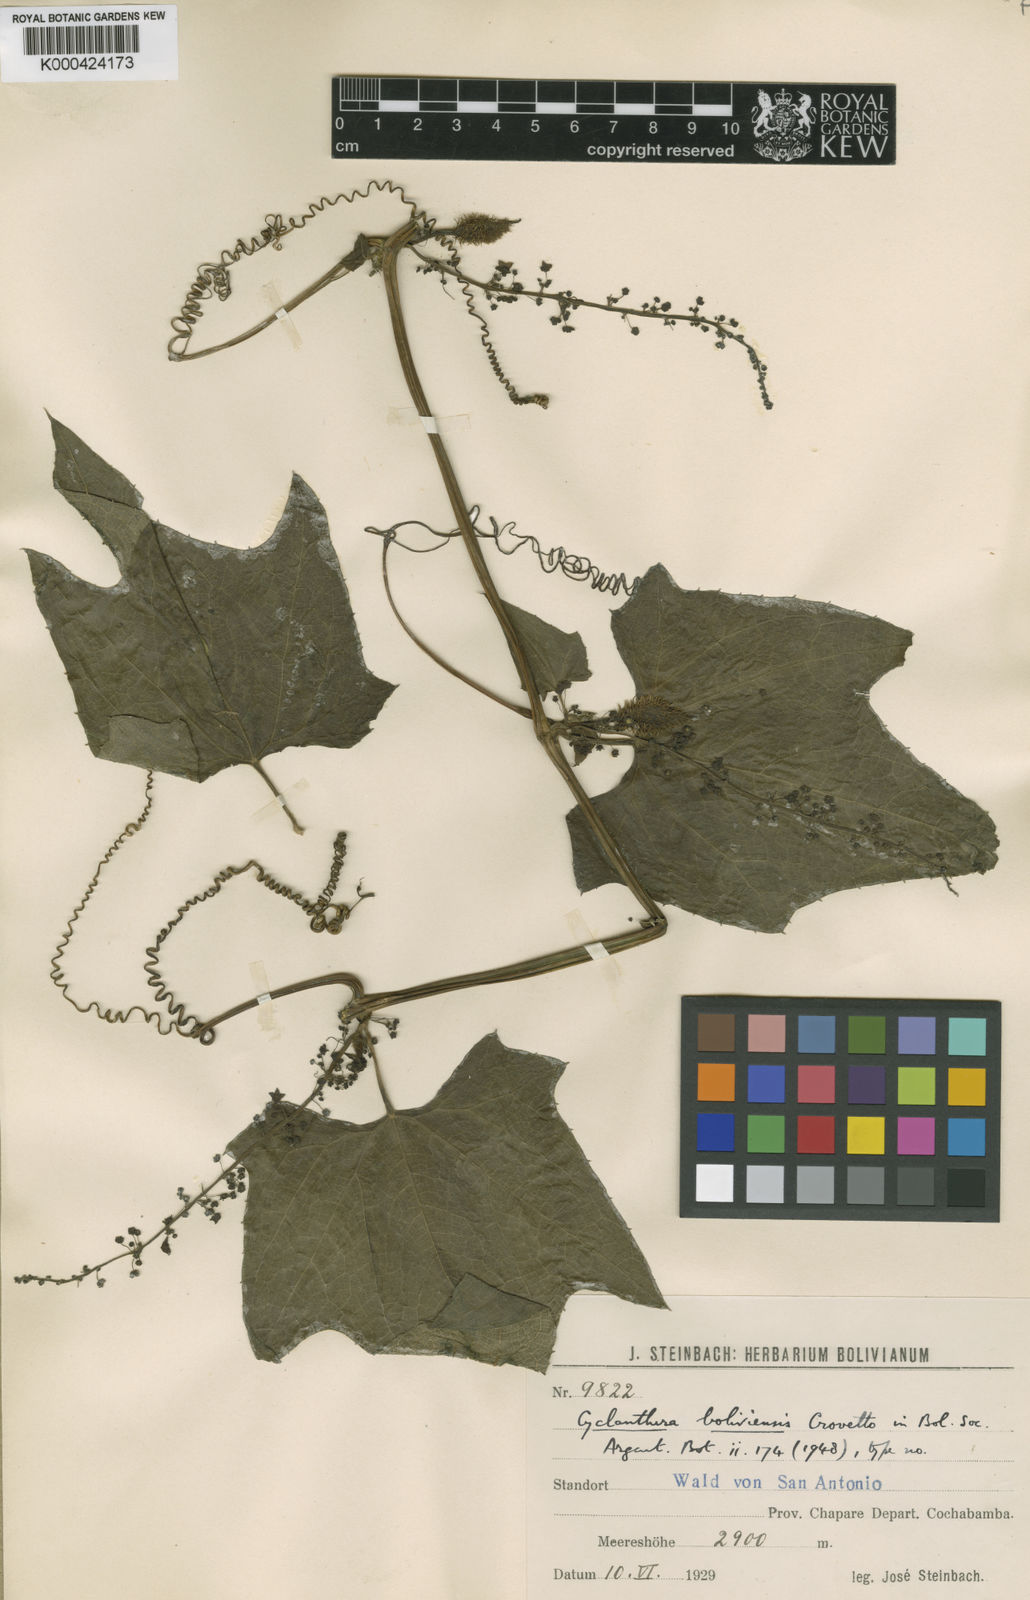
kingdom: Plantae
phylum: Tracheophyta
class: Magnoliopsida
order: Cucurbitales
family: Cucurbitaceae
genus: Cyclanthera
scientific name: Cyclanthera cordifolia
